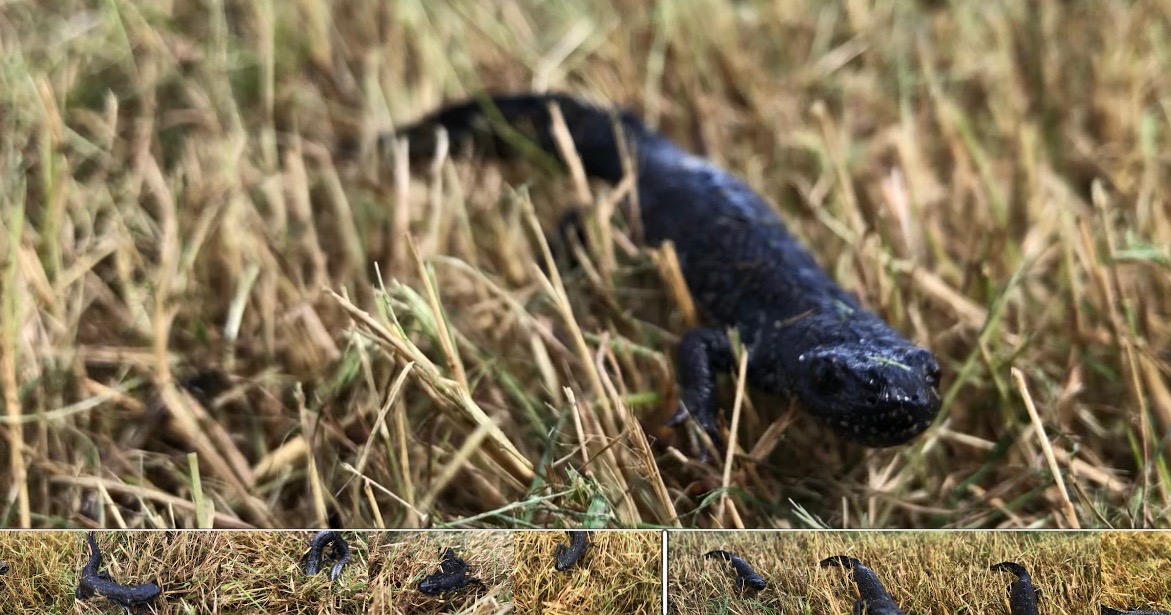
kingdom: Animalia
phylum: Chordata
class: Amphibia
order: Caudata
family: Salamandridae
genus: Triturus
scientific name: Triturus cristatus
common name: Stor vandsalamander
